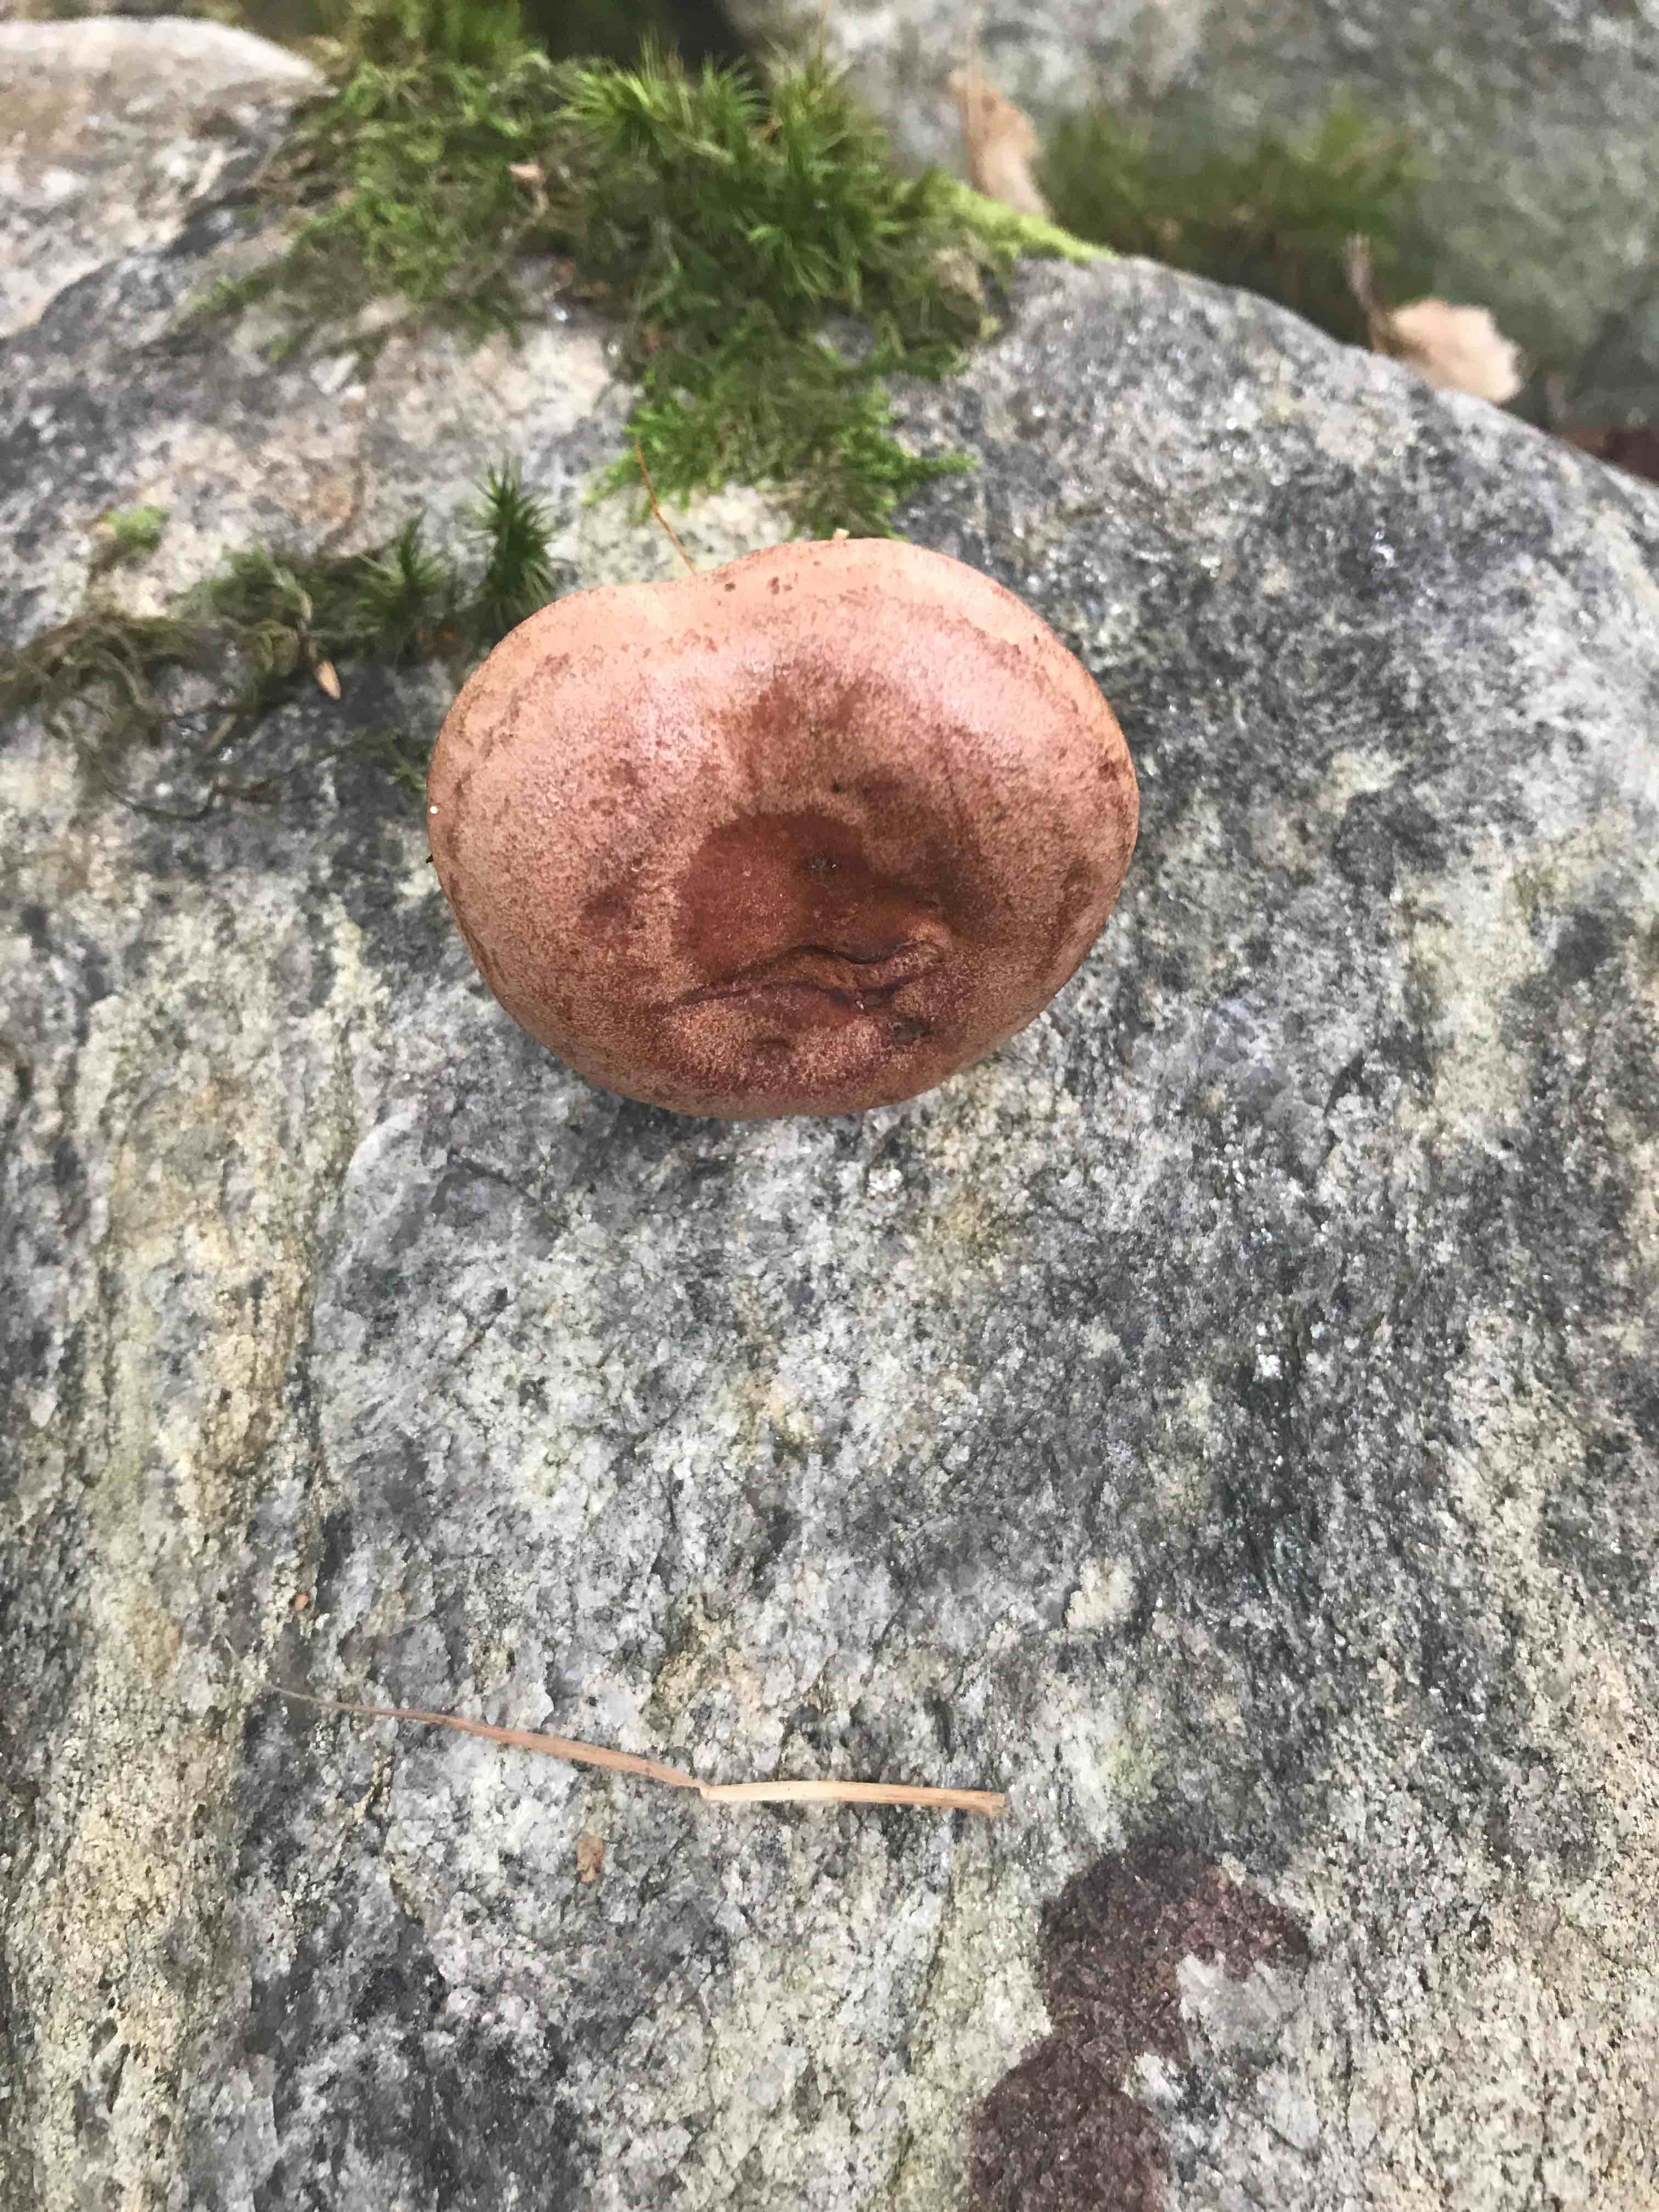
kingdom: Fungi
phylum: Basidiomycota
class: Agaricomycetes
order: Russulales
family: Russulaceae
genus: Lactarius
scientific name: Lactarius quietus
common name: ege-mælkehat
